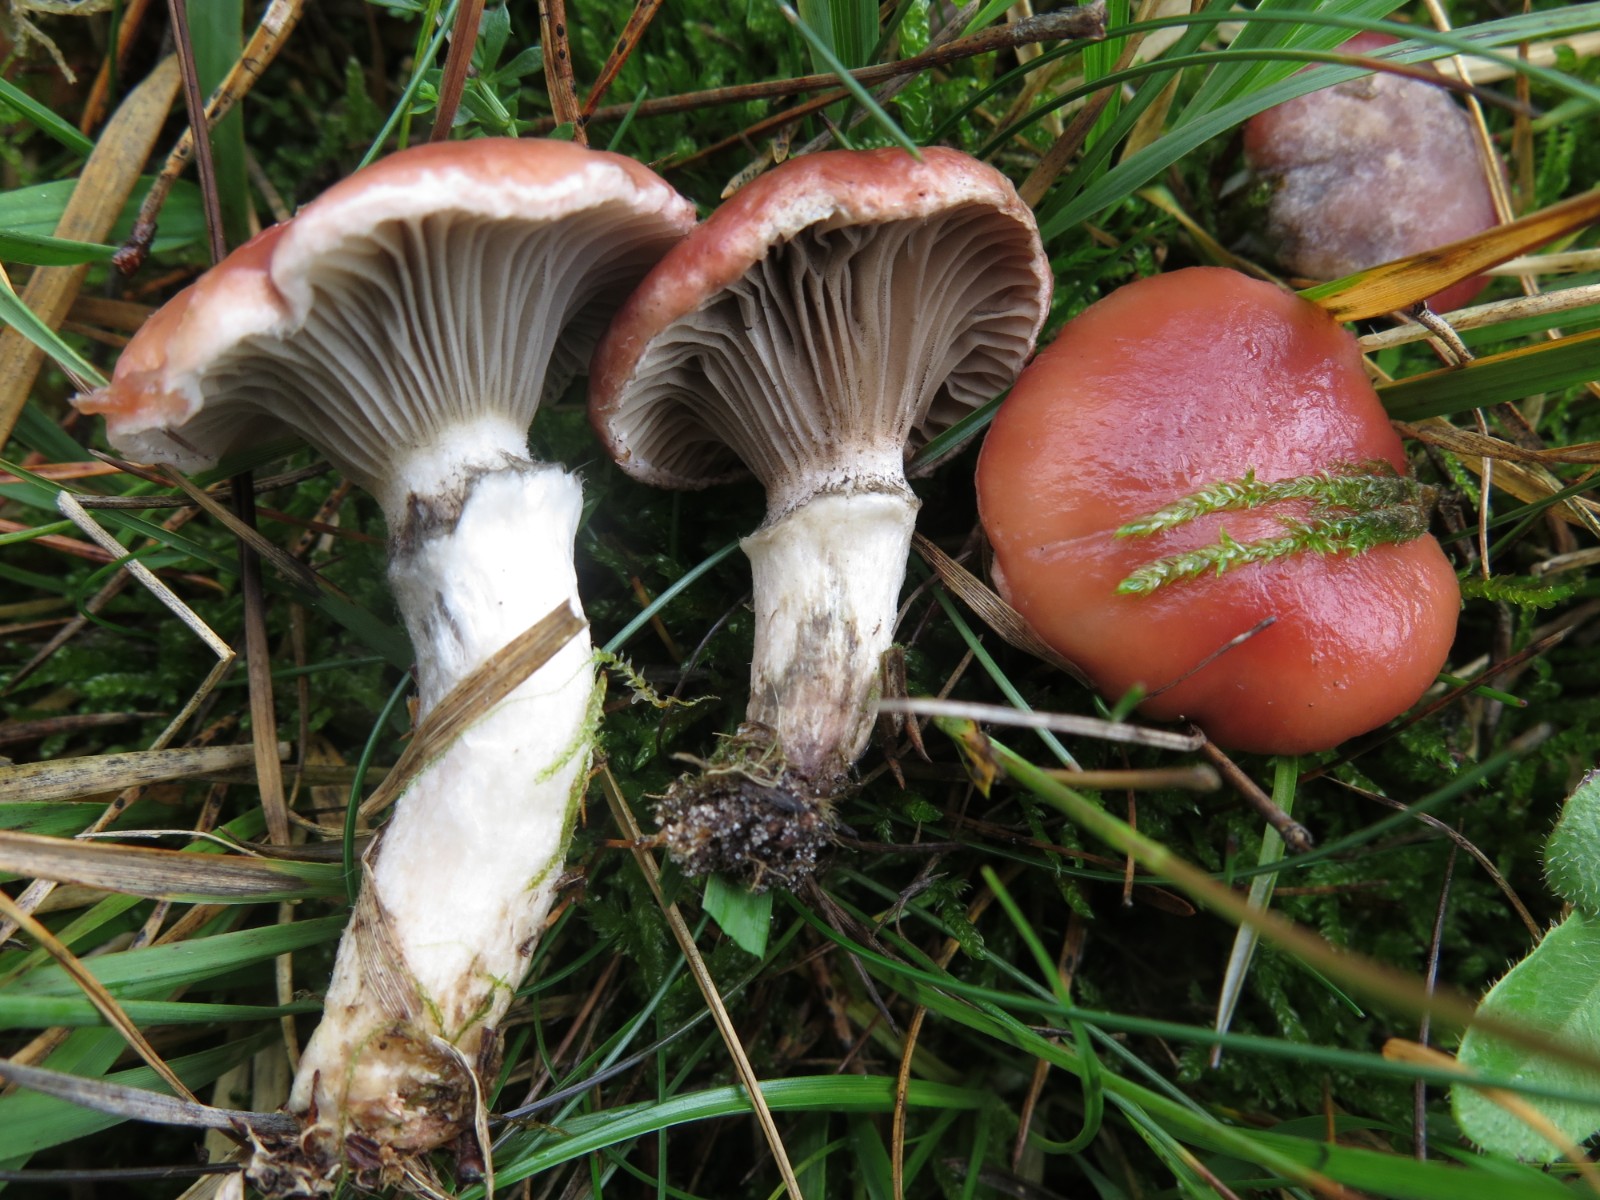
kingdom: Fungi
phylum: Basidiomycota
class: Agaricomycetes
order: Boletales
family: Gomphidiaceae
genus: Gomphidius
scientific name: Gomphidius roseus
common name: rosenrød slimslør
